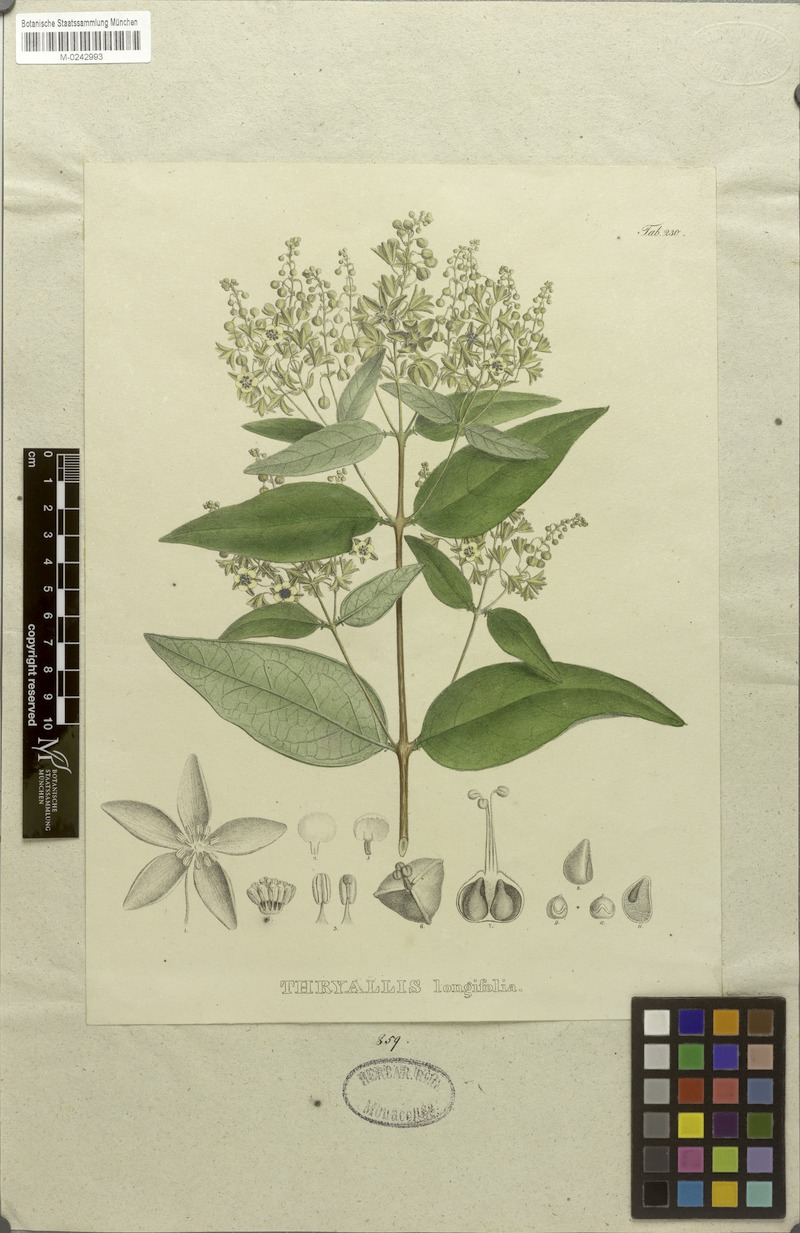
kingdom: Plantae
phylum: Tracheophyta
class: Magnoliopsida
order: Malpighiales
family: Malpighiaceae
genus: Thryallis
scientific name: Thryallis longifolia
